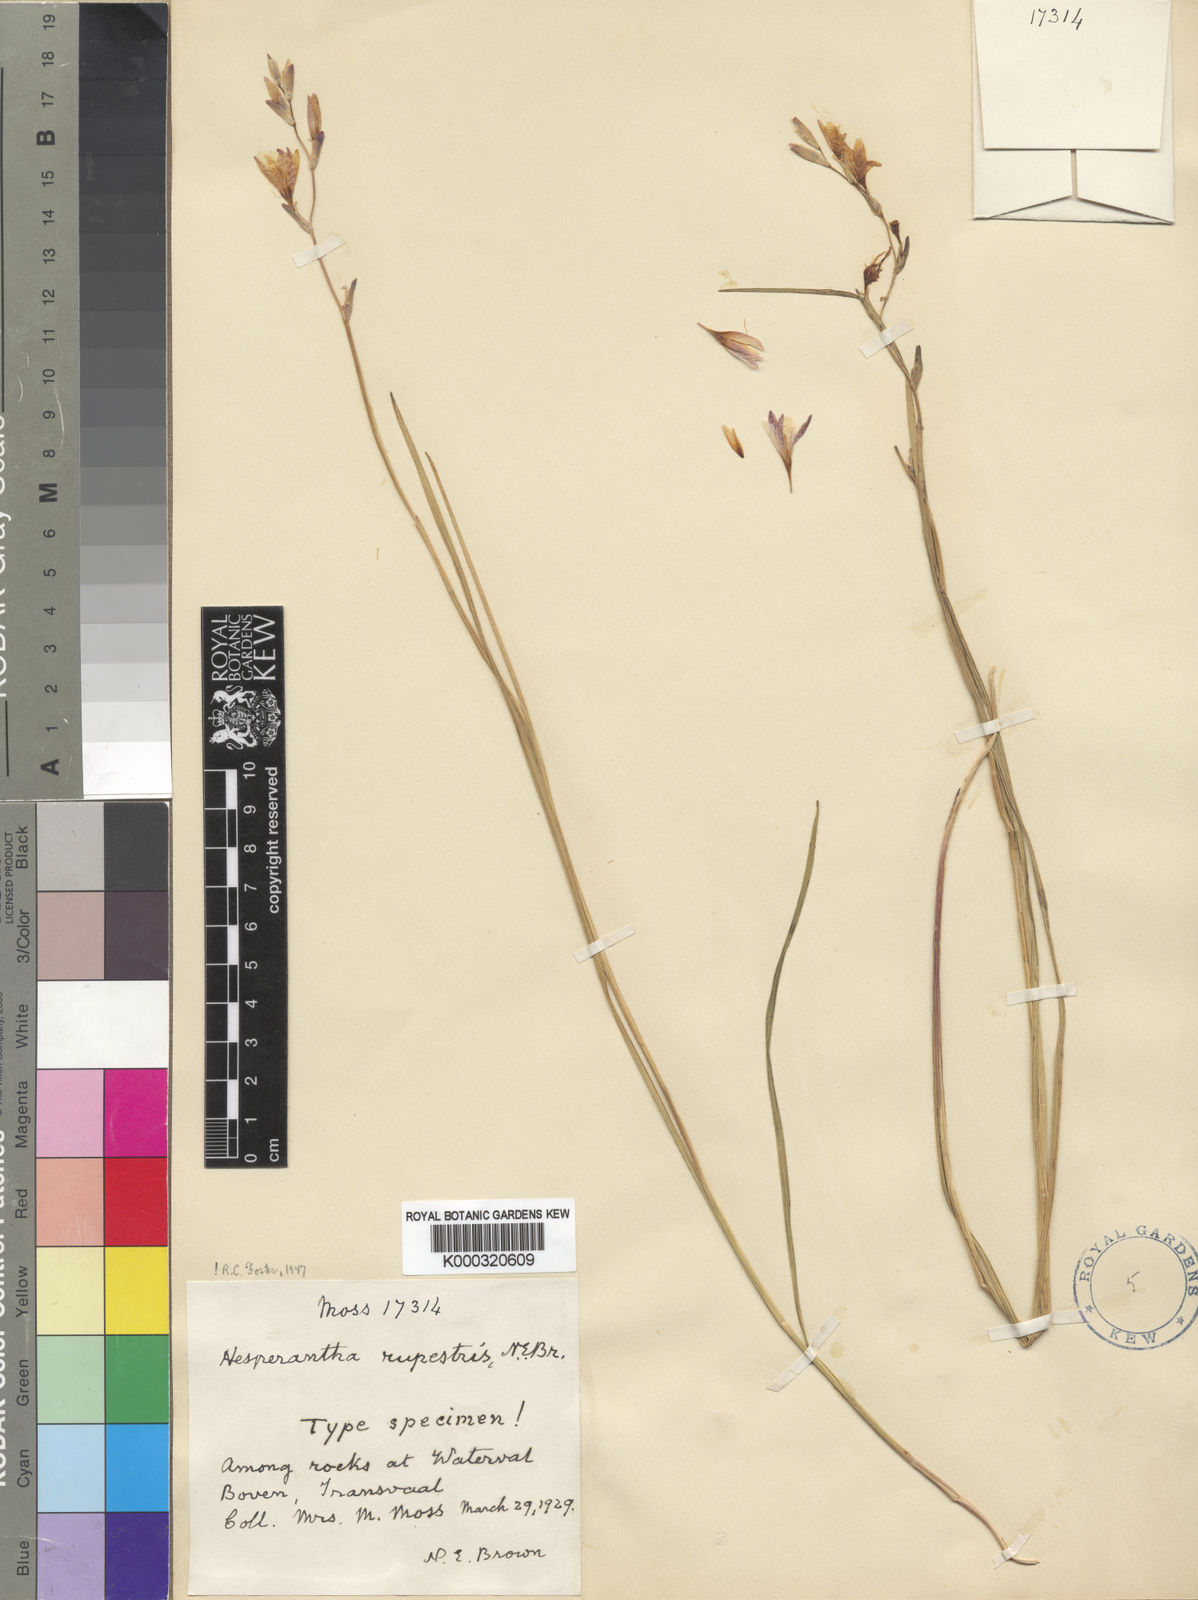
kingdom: Plantae
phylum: Tracheophyta
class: Liliopsida
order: Asparagales
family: Iridaceae
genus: Hesperantha
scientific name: Hesperantha rupestris
